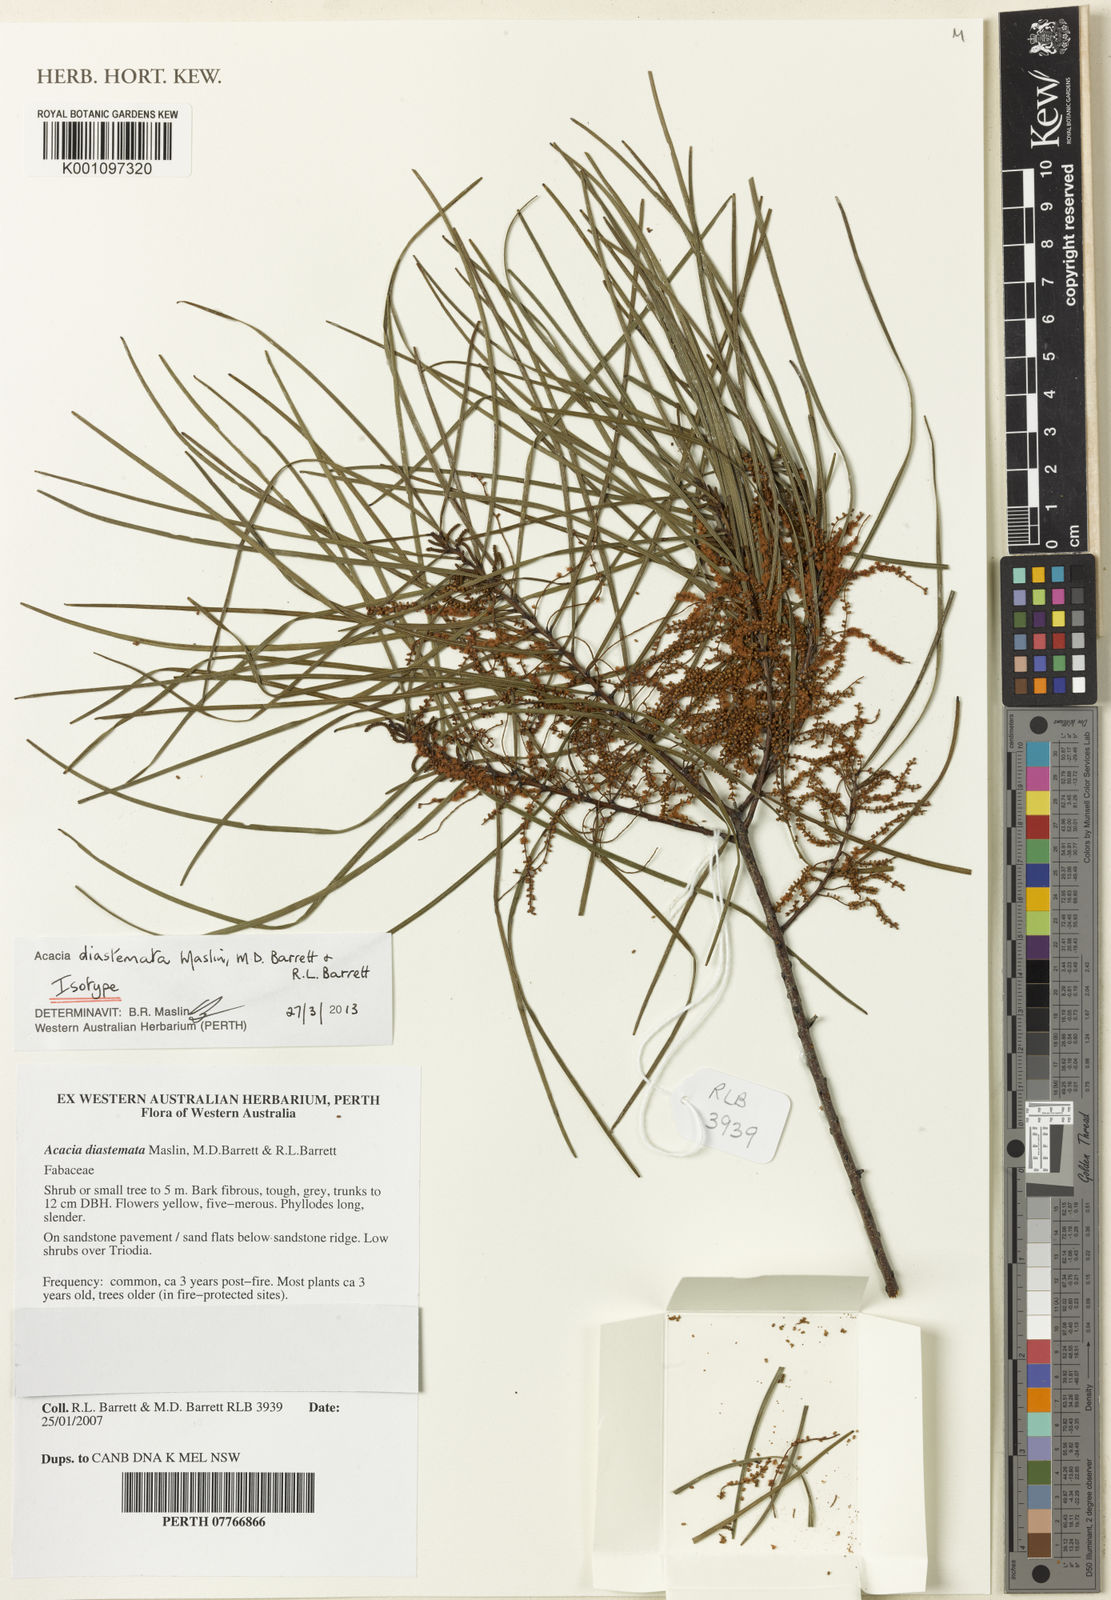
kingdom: Plantae
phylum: Tracheophyta
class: Magnoliopsida
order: Fabales
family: Fabaceae
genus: Acacia
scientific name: Acacia diastemata
